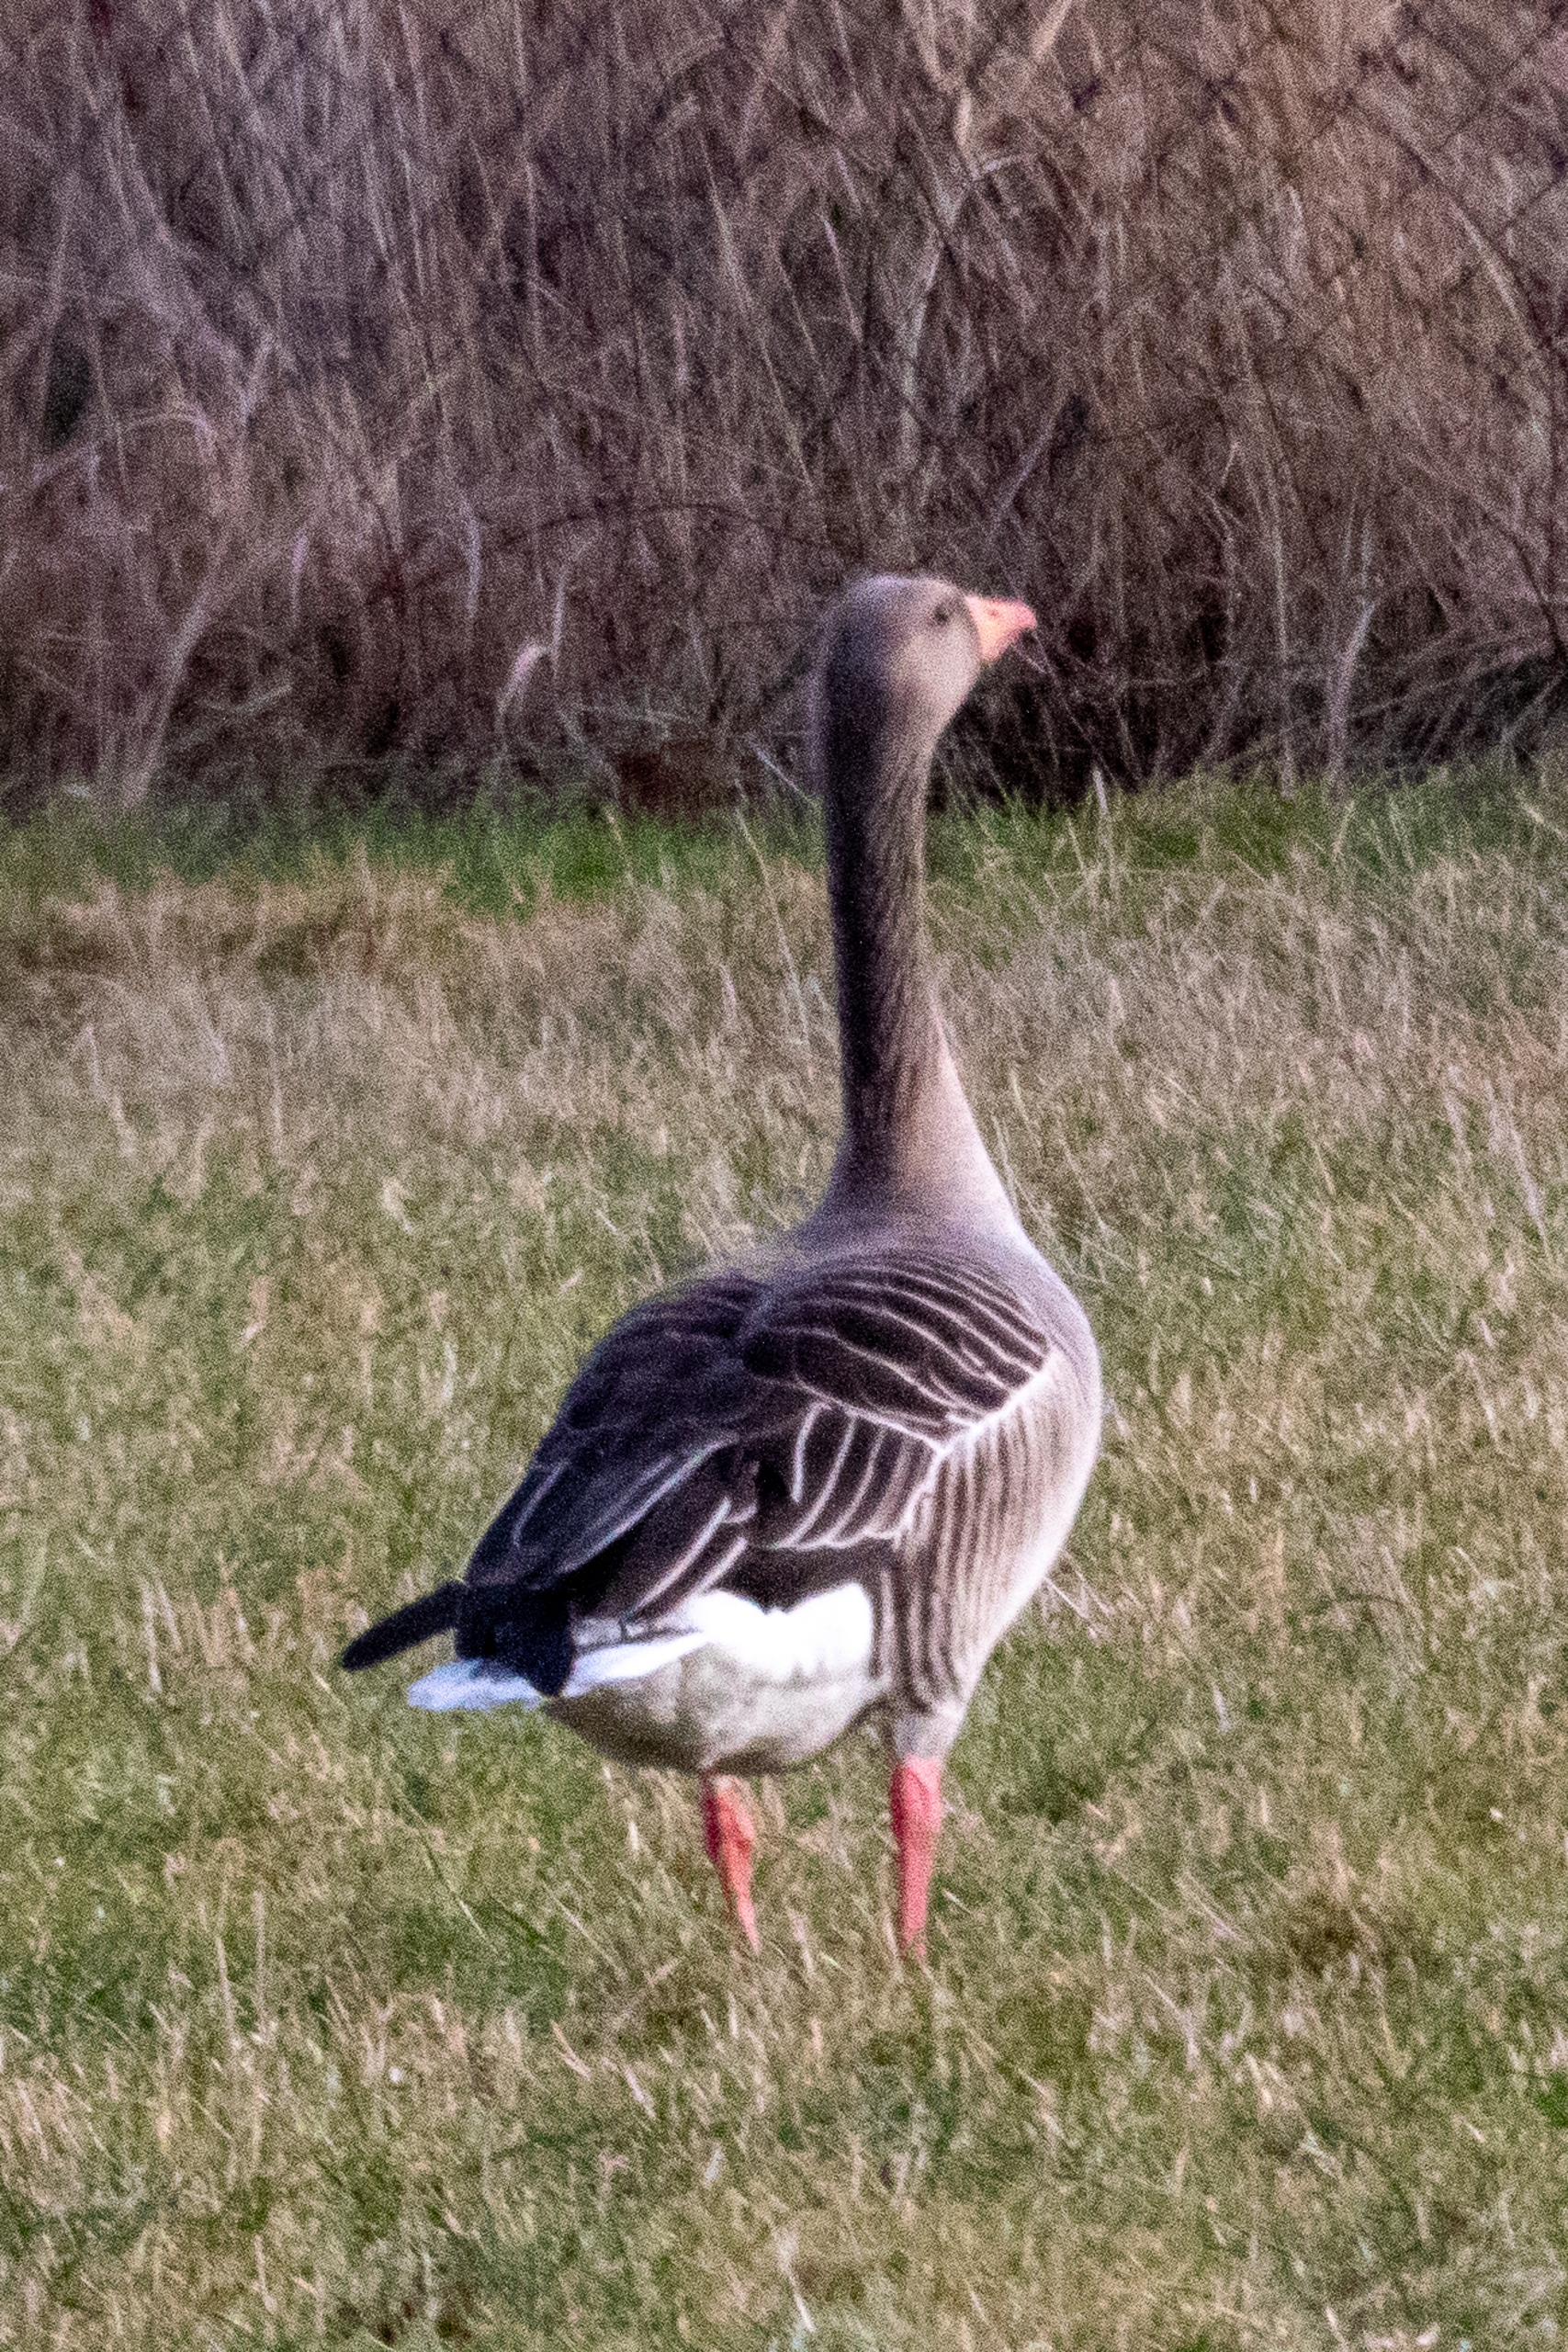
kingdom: Animalia
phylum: Chordata
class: Aves
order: Anseriformes
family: Anatidae
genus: Anser
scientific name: Anser anser
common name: Grågås
